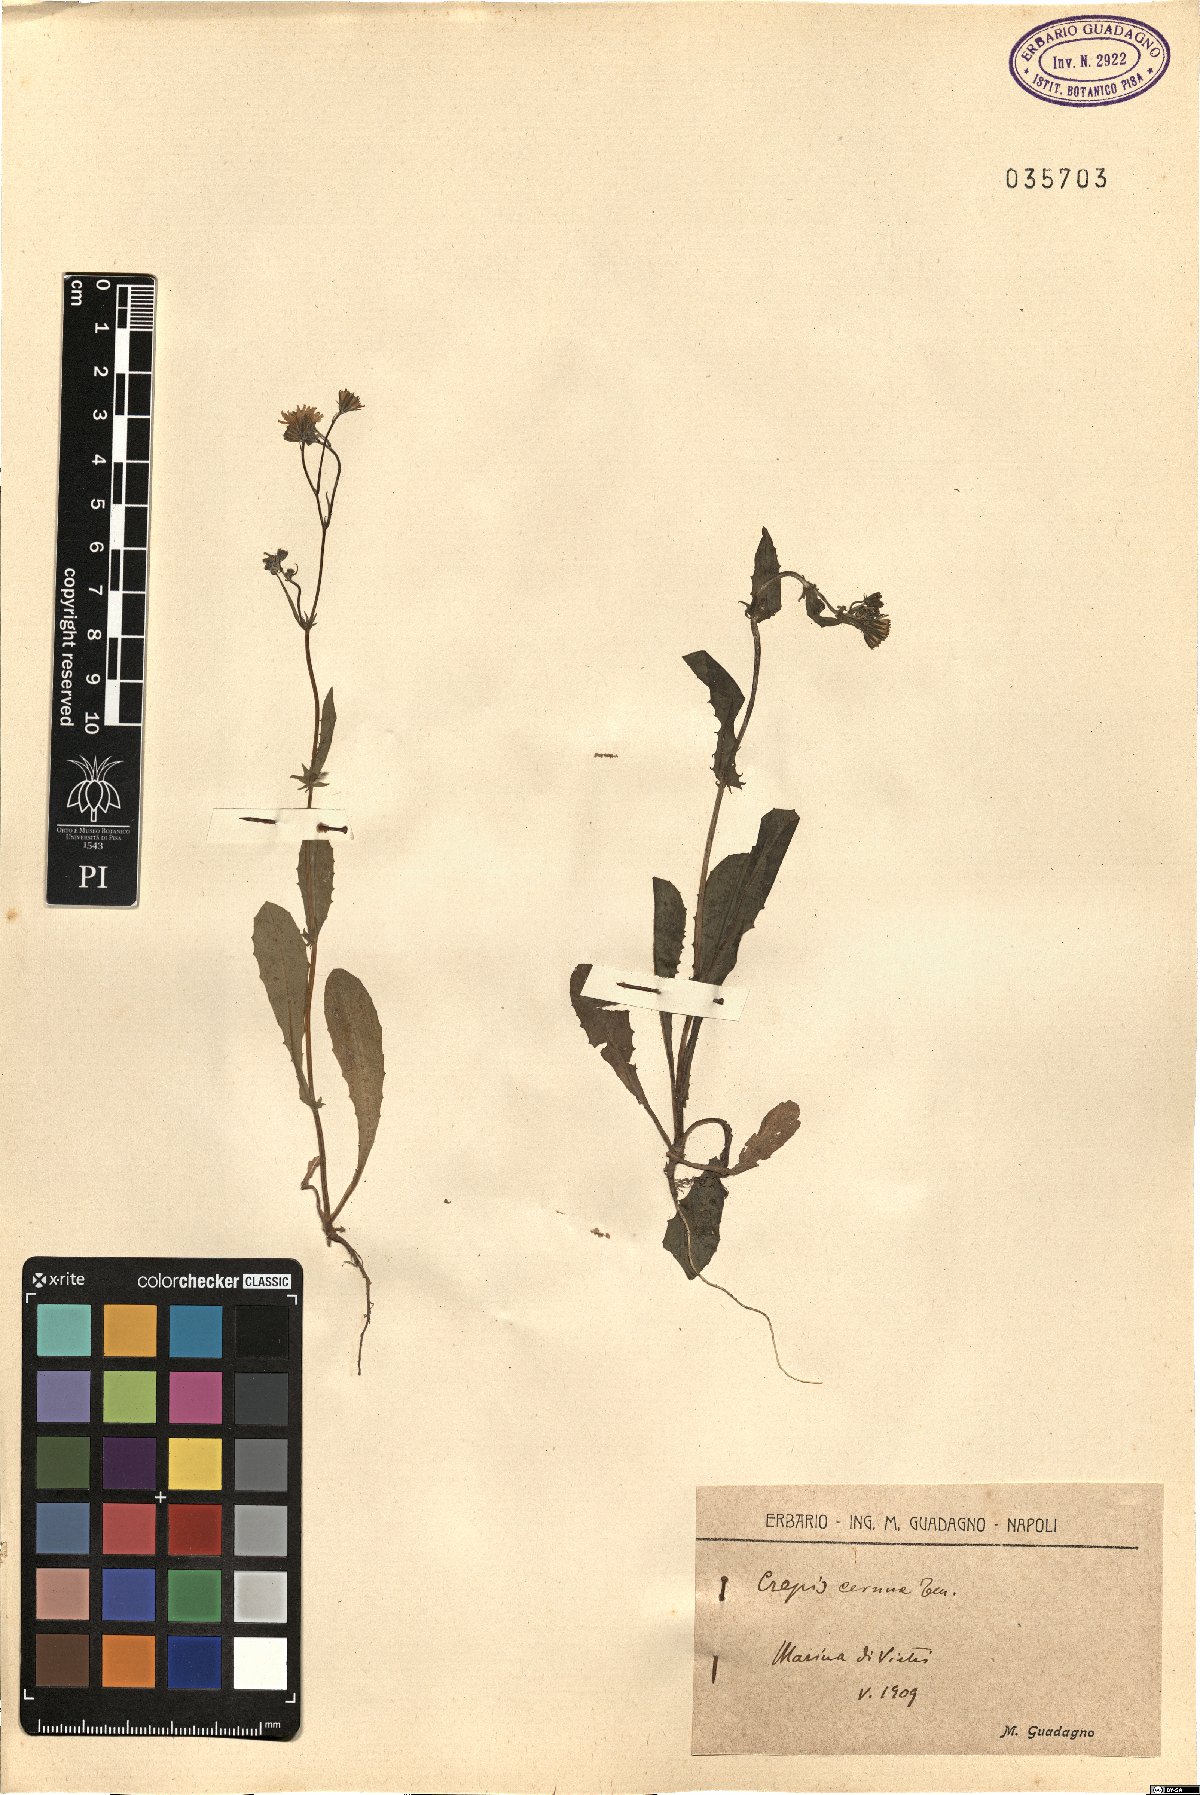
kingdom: Plantae
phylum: Tracheophyta
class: Magnoliopsida
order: Asterales
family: Asteraceae
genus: Crepis
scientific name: Crepis neglecta
